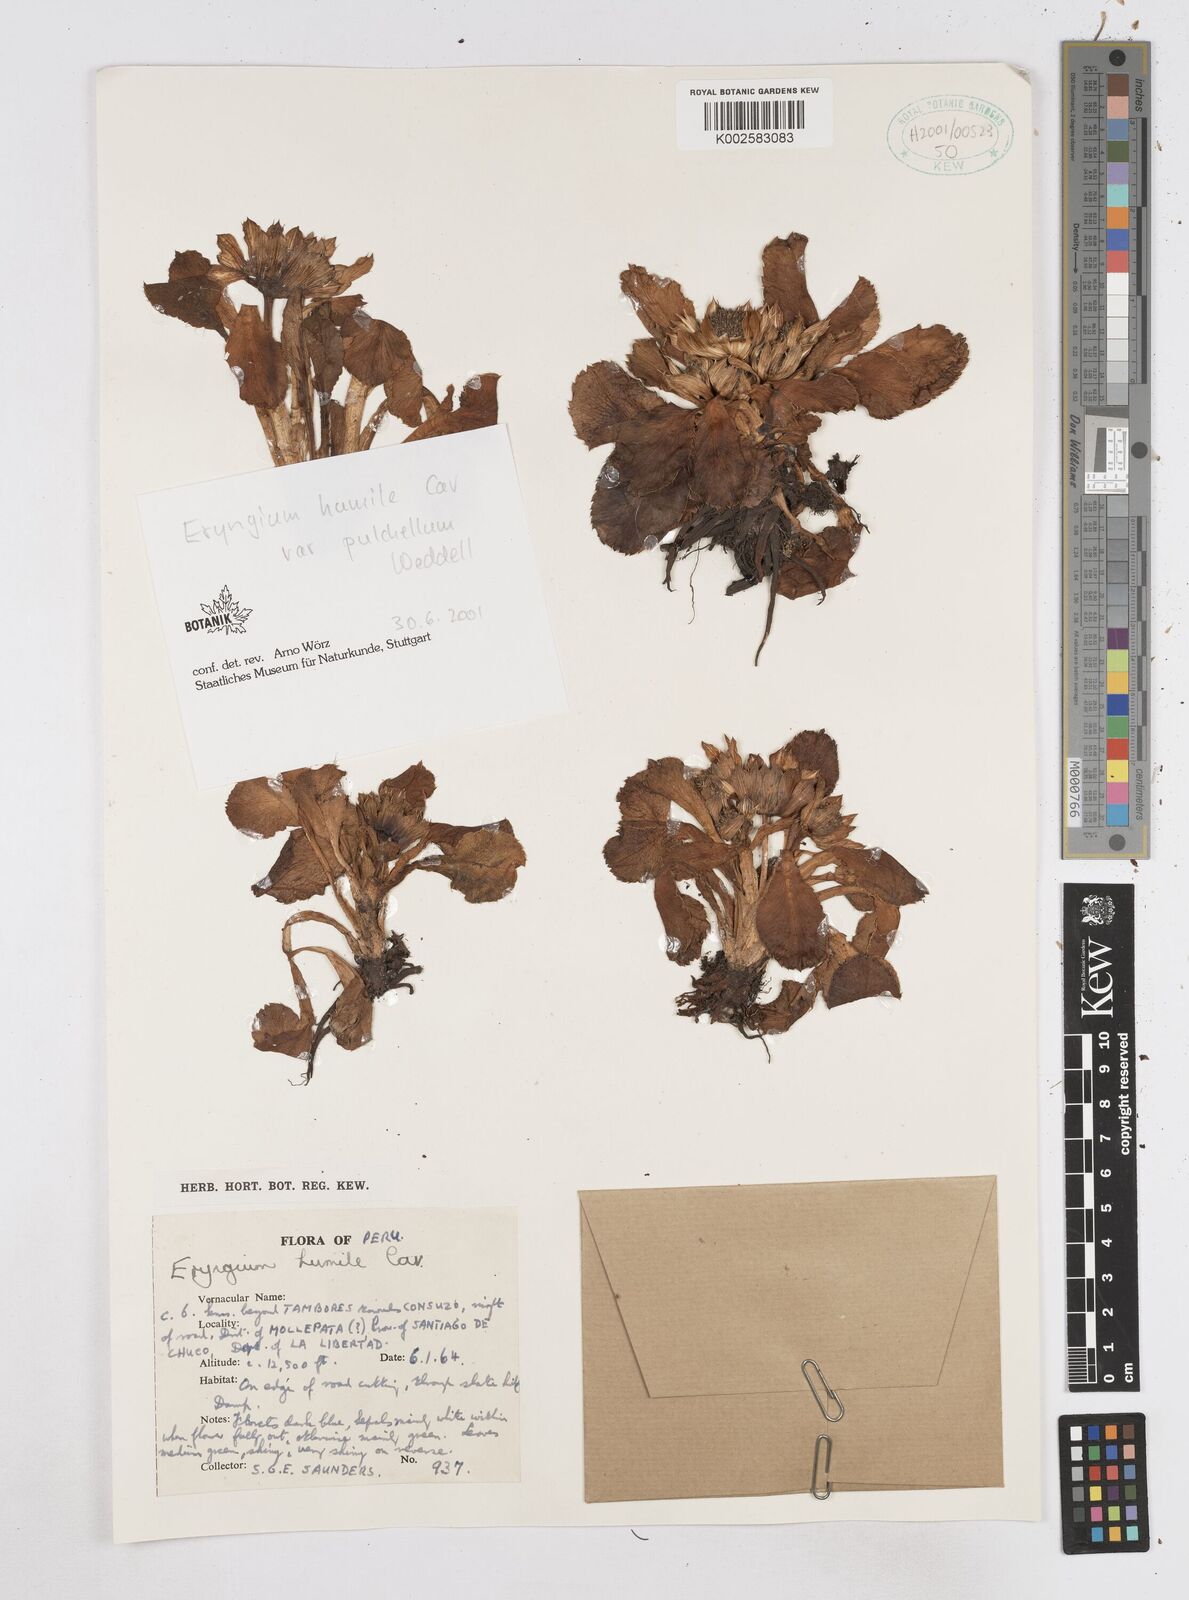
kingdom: Plantae
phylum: Tracheophyta
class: Magnoliopsida
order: Apiales
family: Apiaceae
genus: Eryngium
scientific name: Eryngium humile
